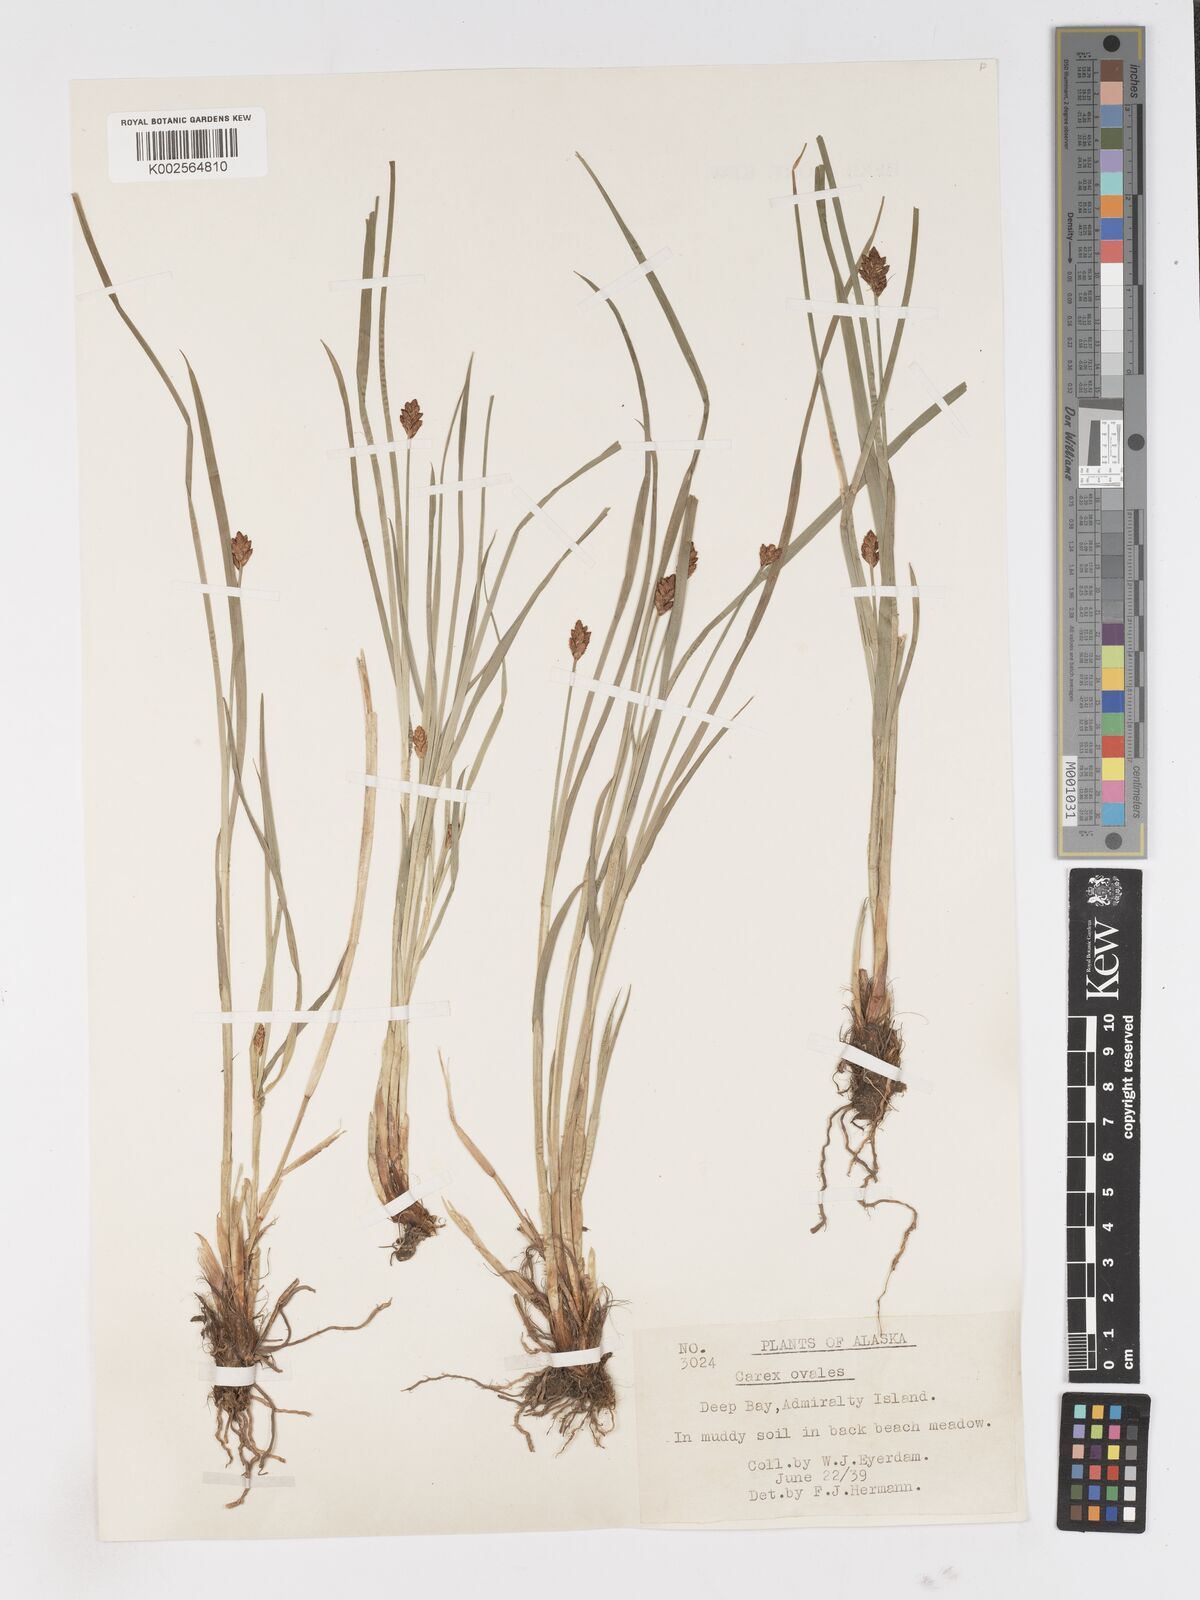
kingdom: Plantae
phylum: Tracheophyta
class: Liliopsida
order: Poales
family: Cyperaceae
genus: Carex
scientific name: Carex
